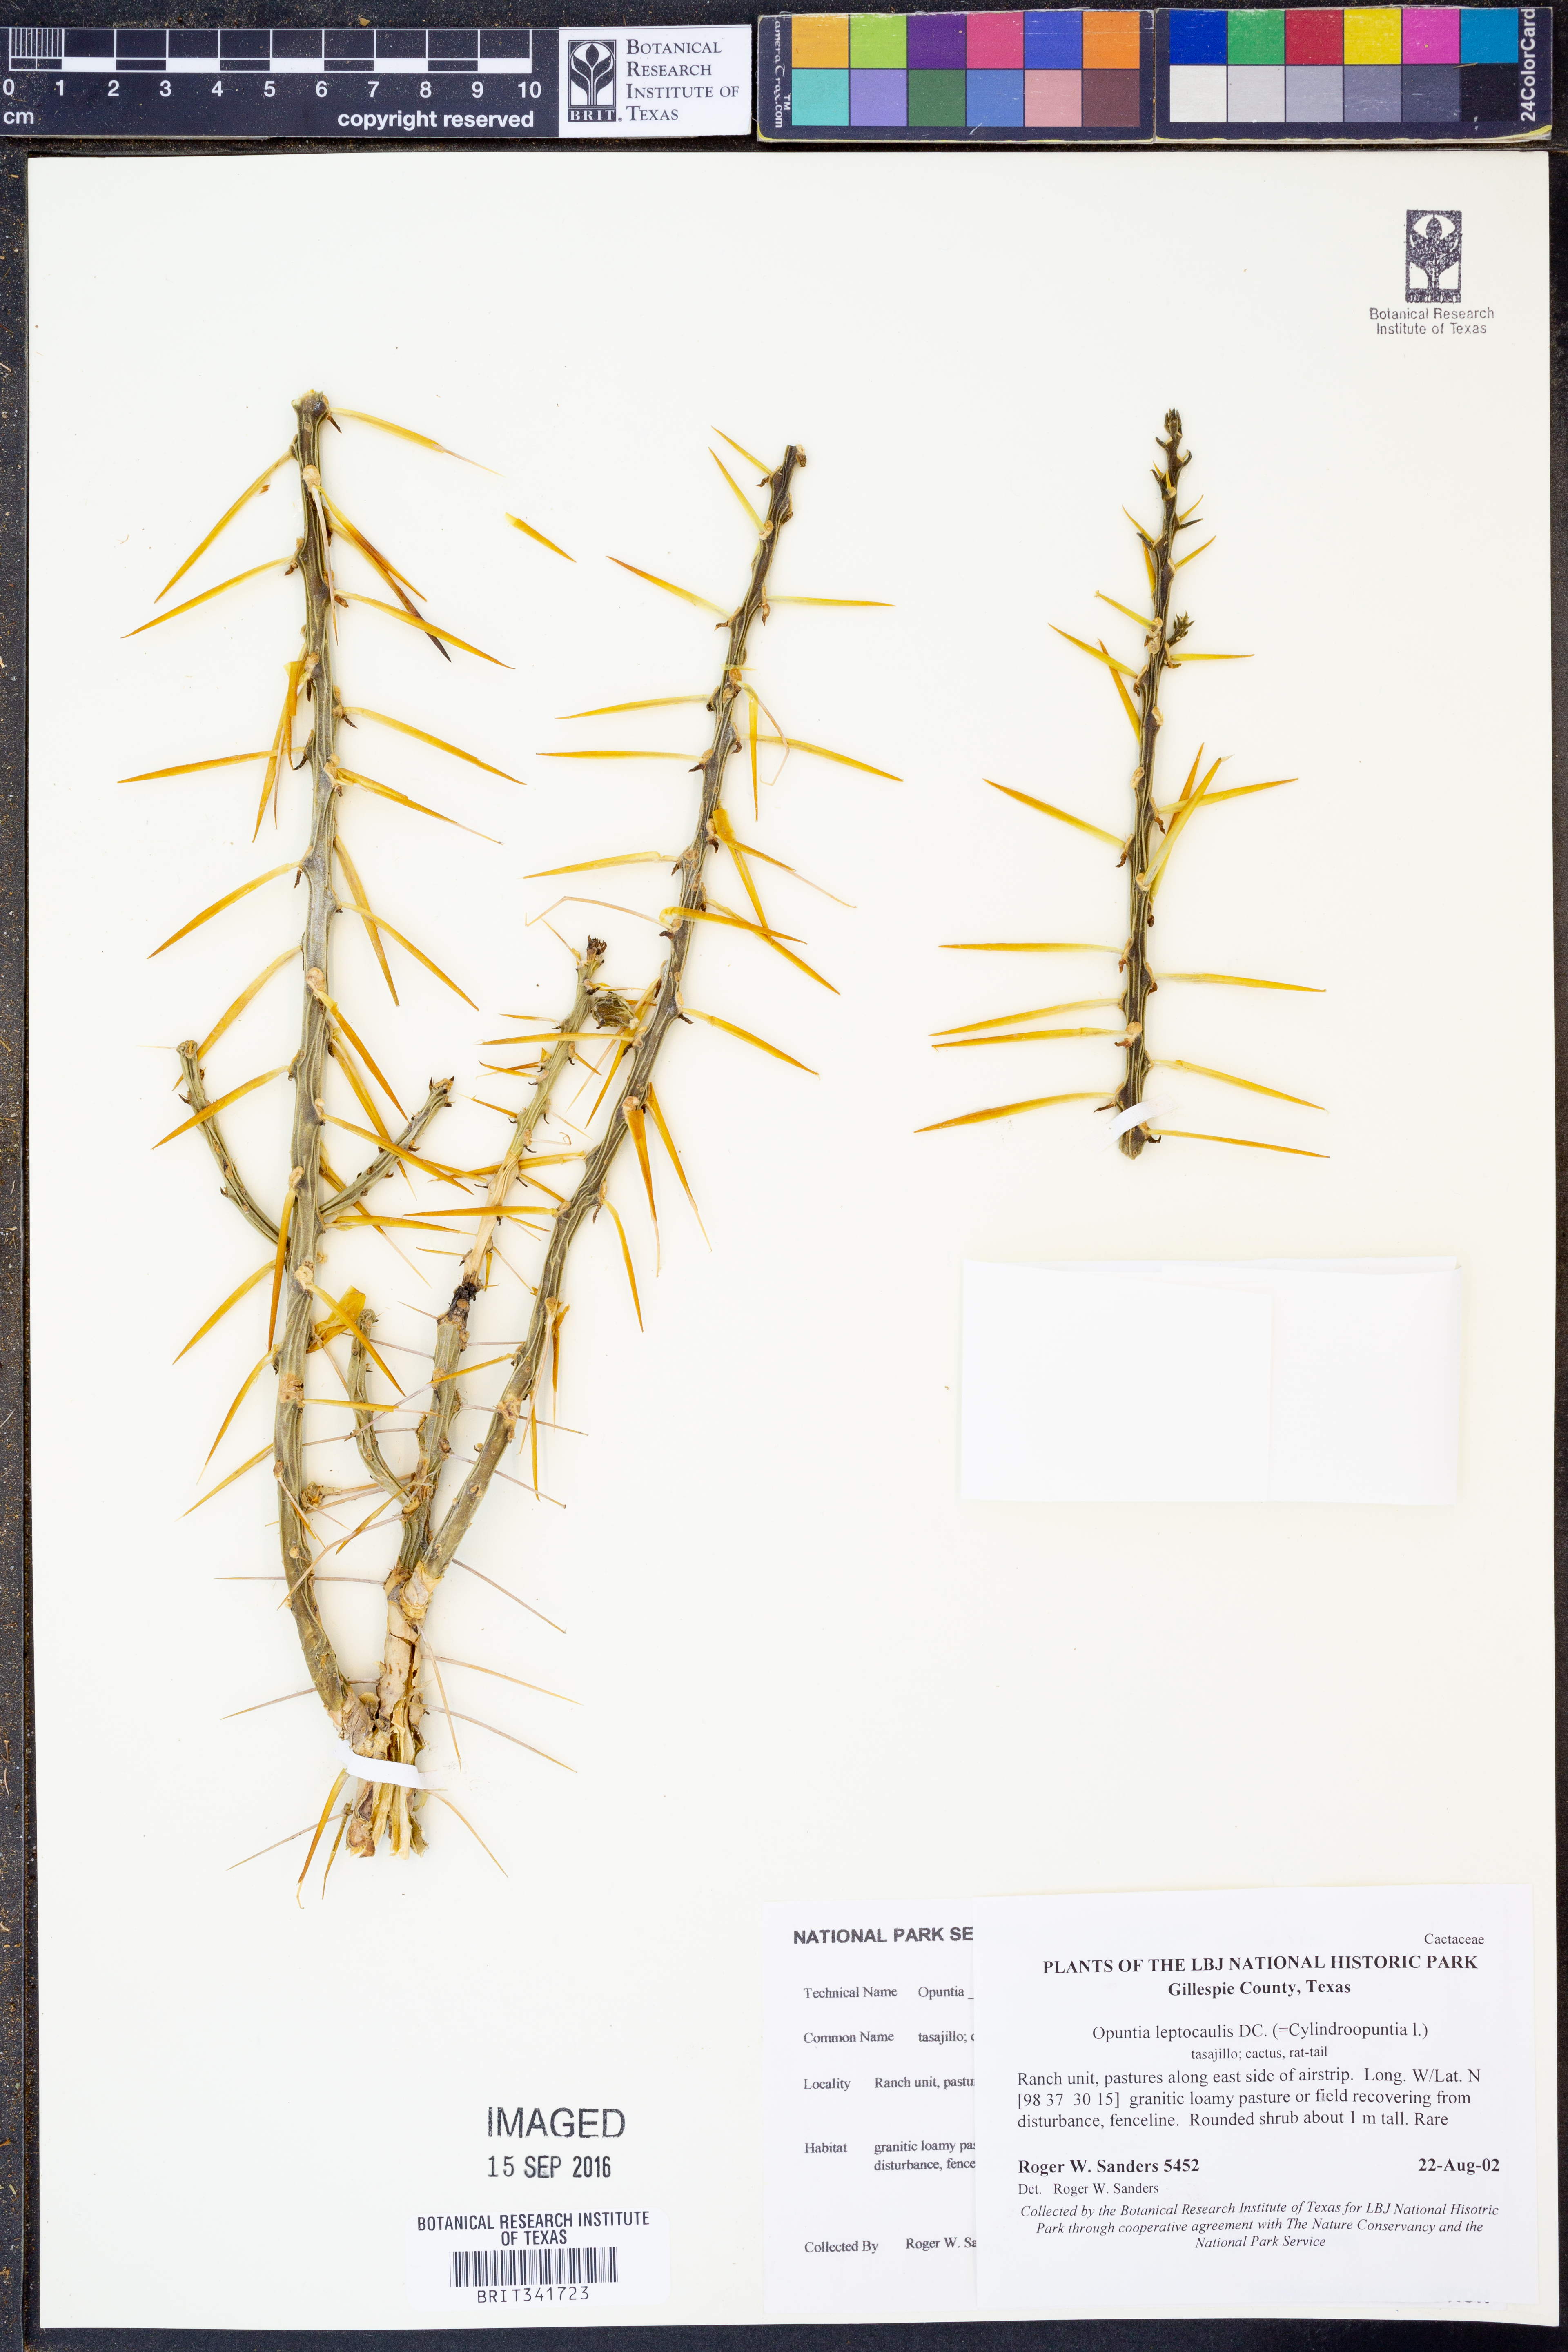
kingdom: Plantae
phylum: Tracheophyta
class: Magnoliopsida
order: Caryophyllales
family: Cactaceae
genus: Cylindropuntia
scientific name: Cylindropuntia leptocaulis
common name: Christmas cactus
